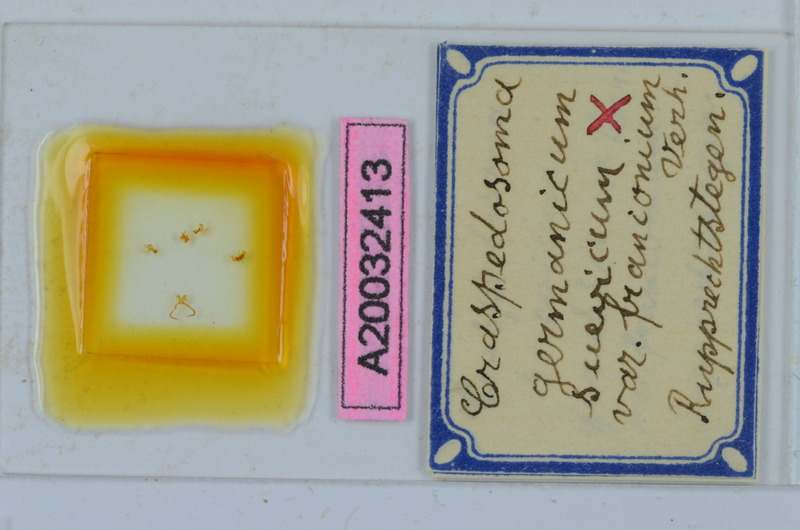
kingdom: Animalia
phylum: Arthropoda
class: Diplopoda
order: Chordeumatida
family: Craspedosomatidae
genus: Craspedosoma
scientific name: Craspedosoma rawlinsii
